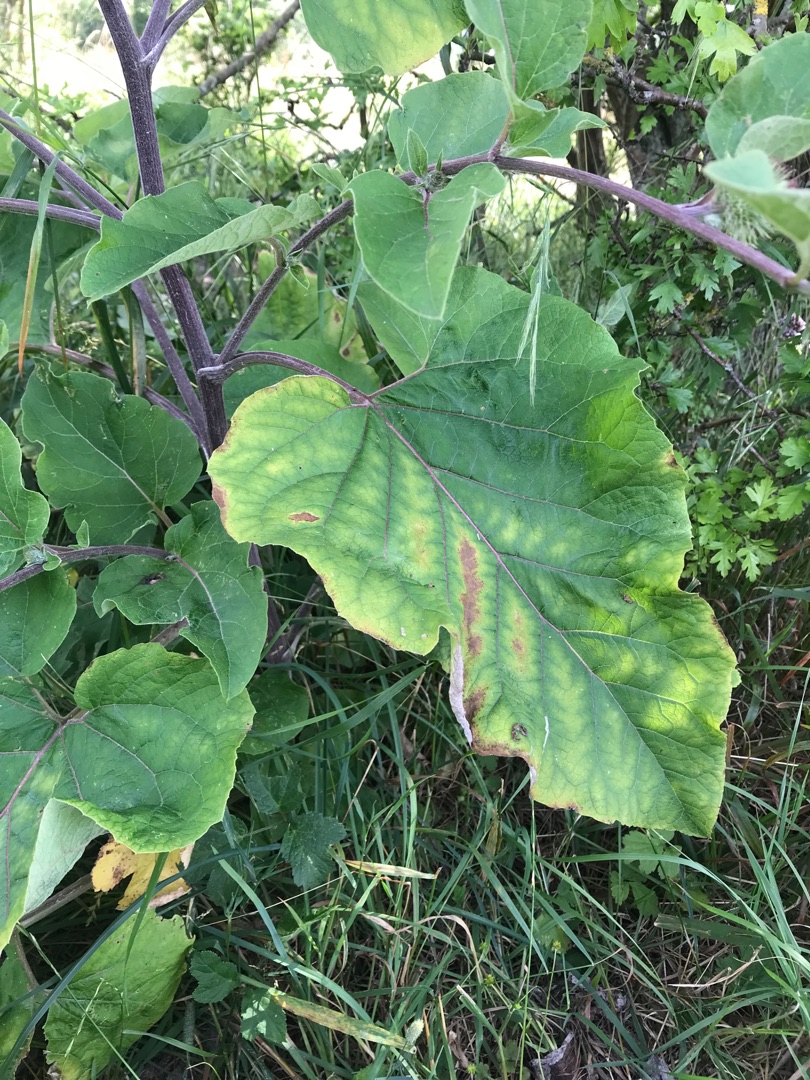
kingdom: Plantae
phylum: Tracheophyta
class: Magnoliopsida
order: Asterales
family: Asteraceae
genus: Arctium
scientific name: Arctium nemorosum
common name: Skov-burre
